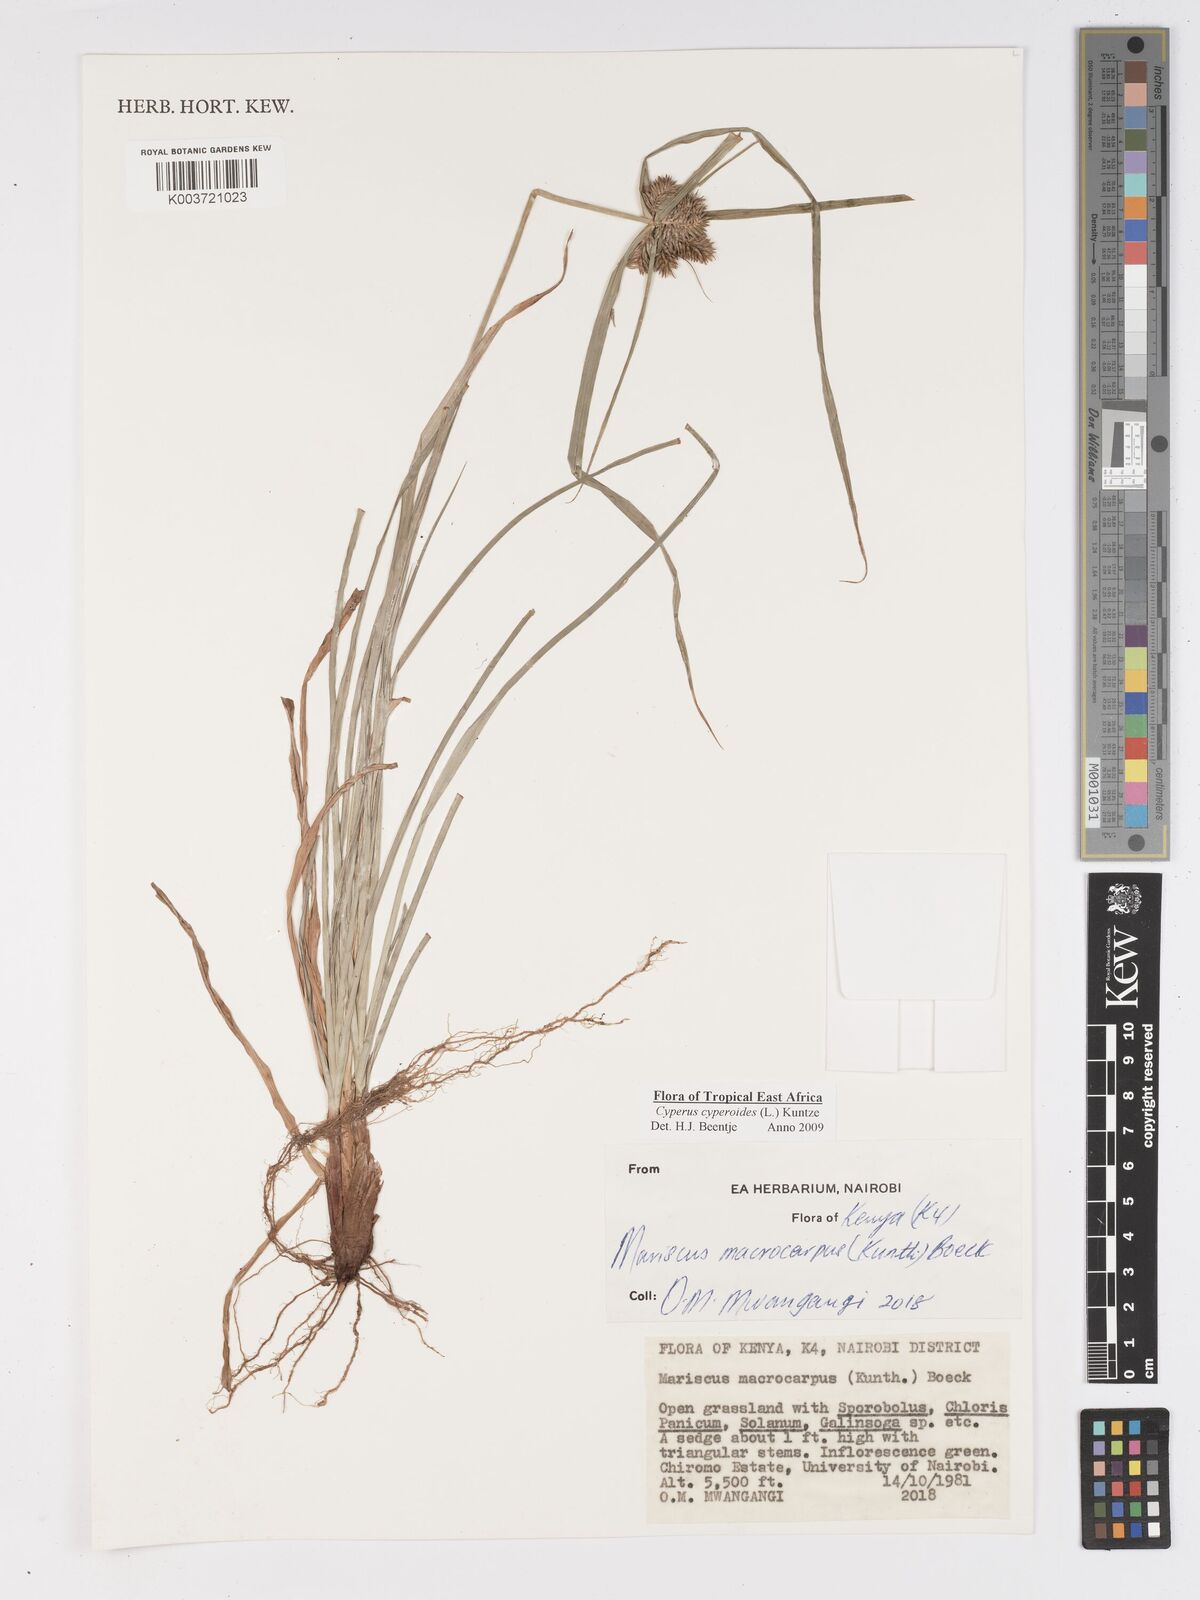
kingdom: Plantae
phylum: Tracheophyta
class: Liliopsida
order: Poales
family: Cyperaceae
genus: Cyperus
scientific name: Cyperus cyperoides
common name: Pacific island flat sedge
